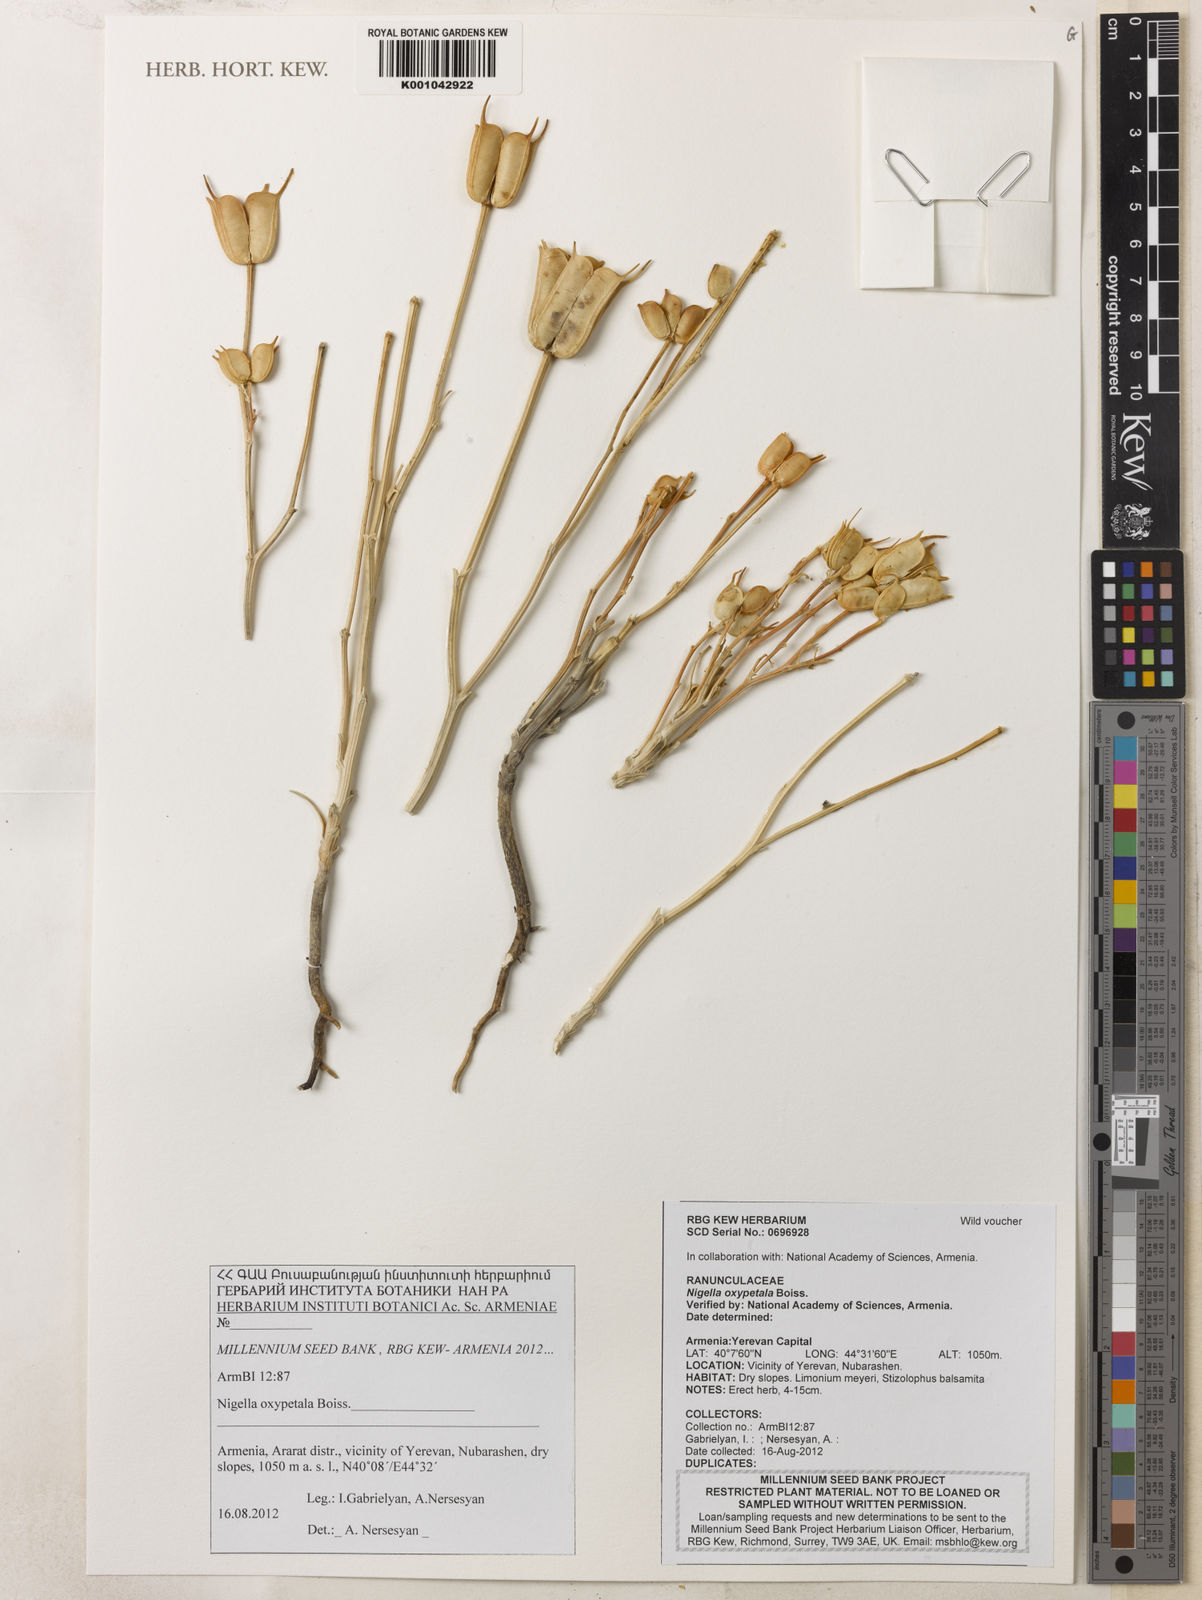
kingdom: Plantae
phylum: Tracheophyta
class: Magnoliopsida
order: Ranunculales
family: Ranunculaceae
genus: Nigella
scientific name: Nigella oxypetala
